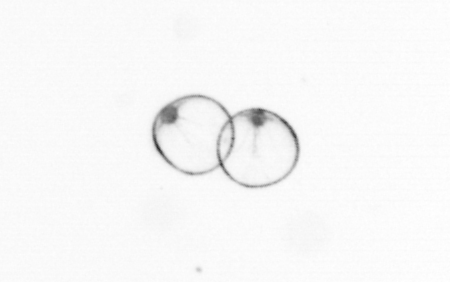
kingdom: Chromista
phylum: Myzozoa
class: Dinophyceae
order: Noctilucales
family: Noctilucaceae
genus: Noctiluca
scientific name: Noctiluca scintillans
